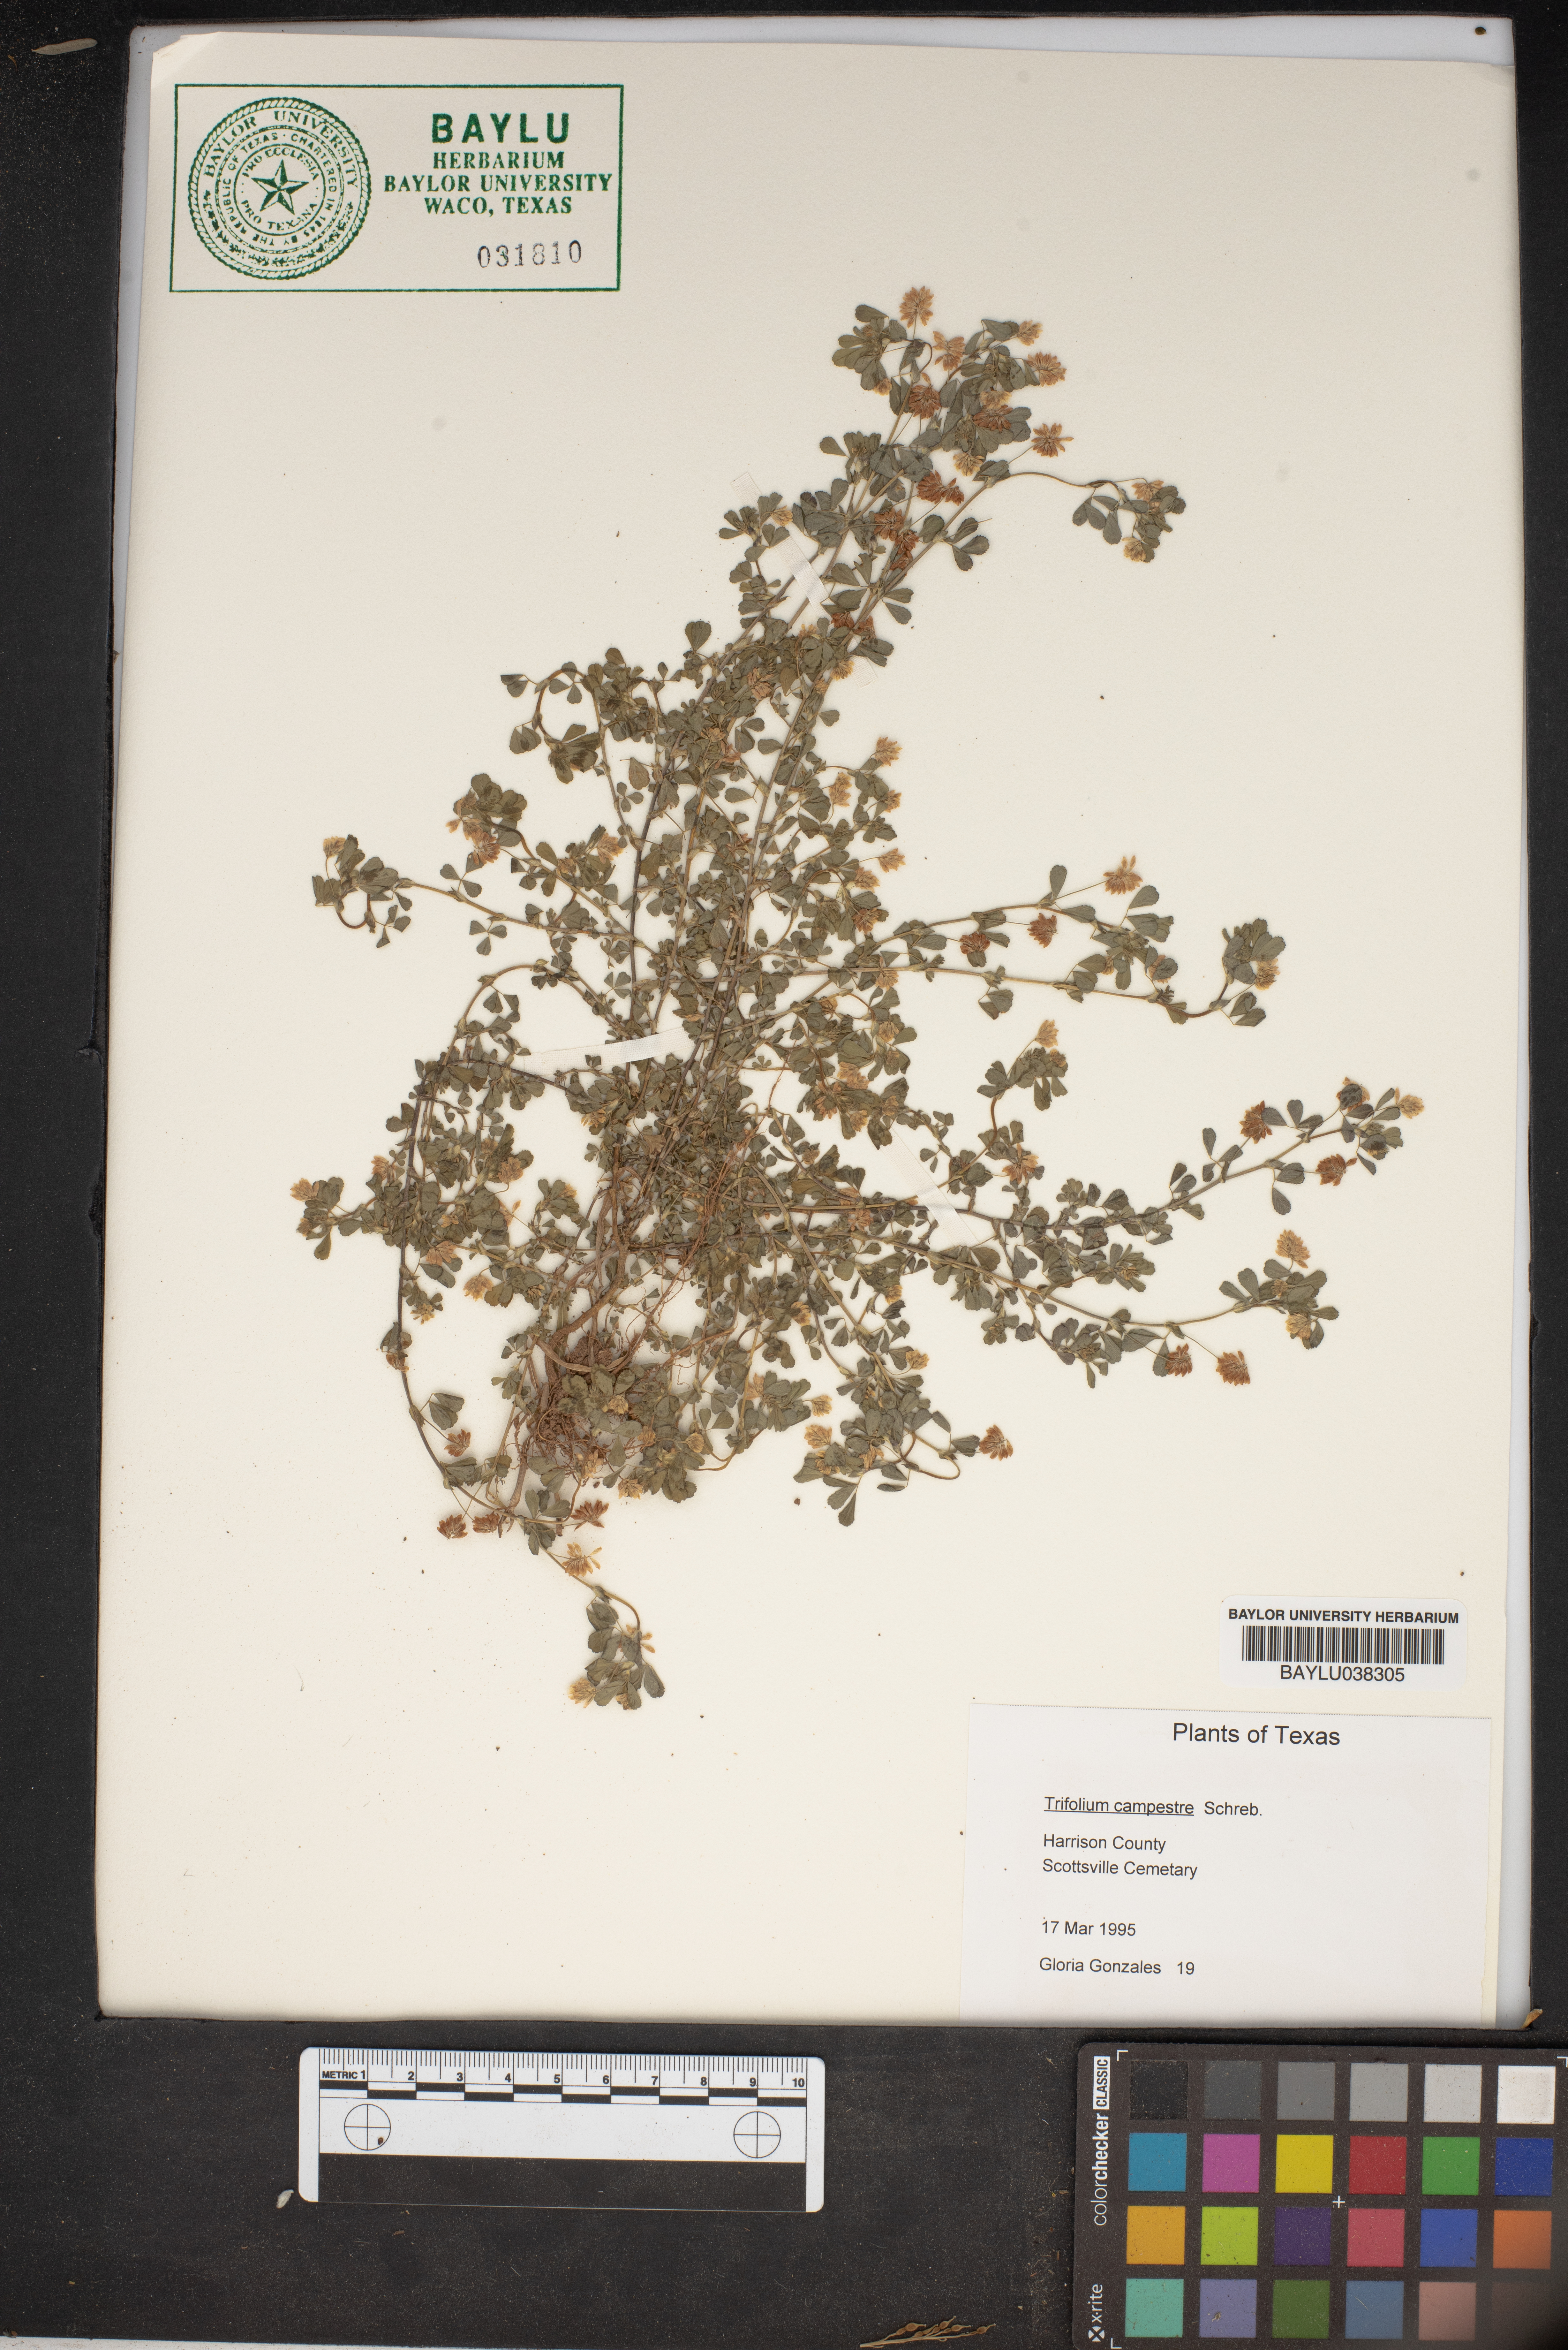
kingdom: Plantae
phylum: Tracheophyta
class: Magnoliopsida
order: Fabales
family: Fabaceae
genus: Trifolium
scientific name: Trifolium campestre
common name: Field clover
